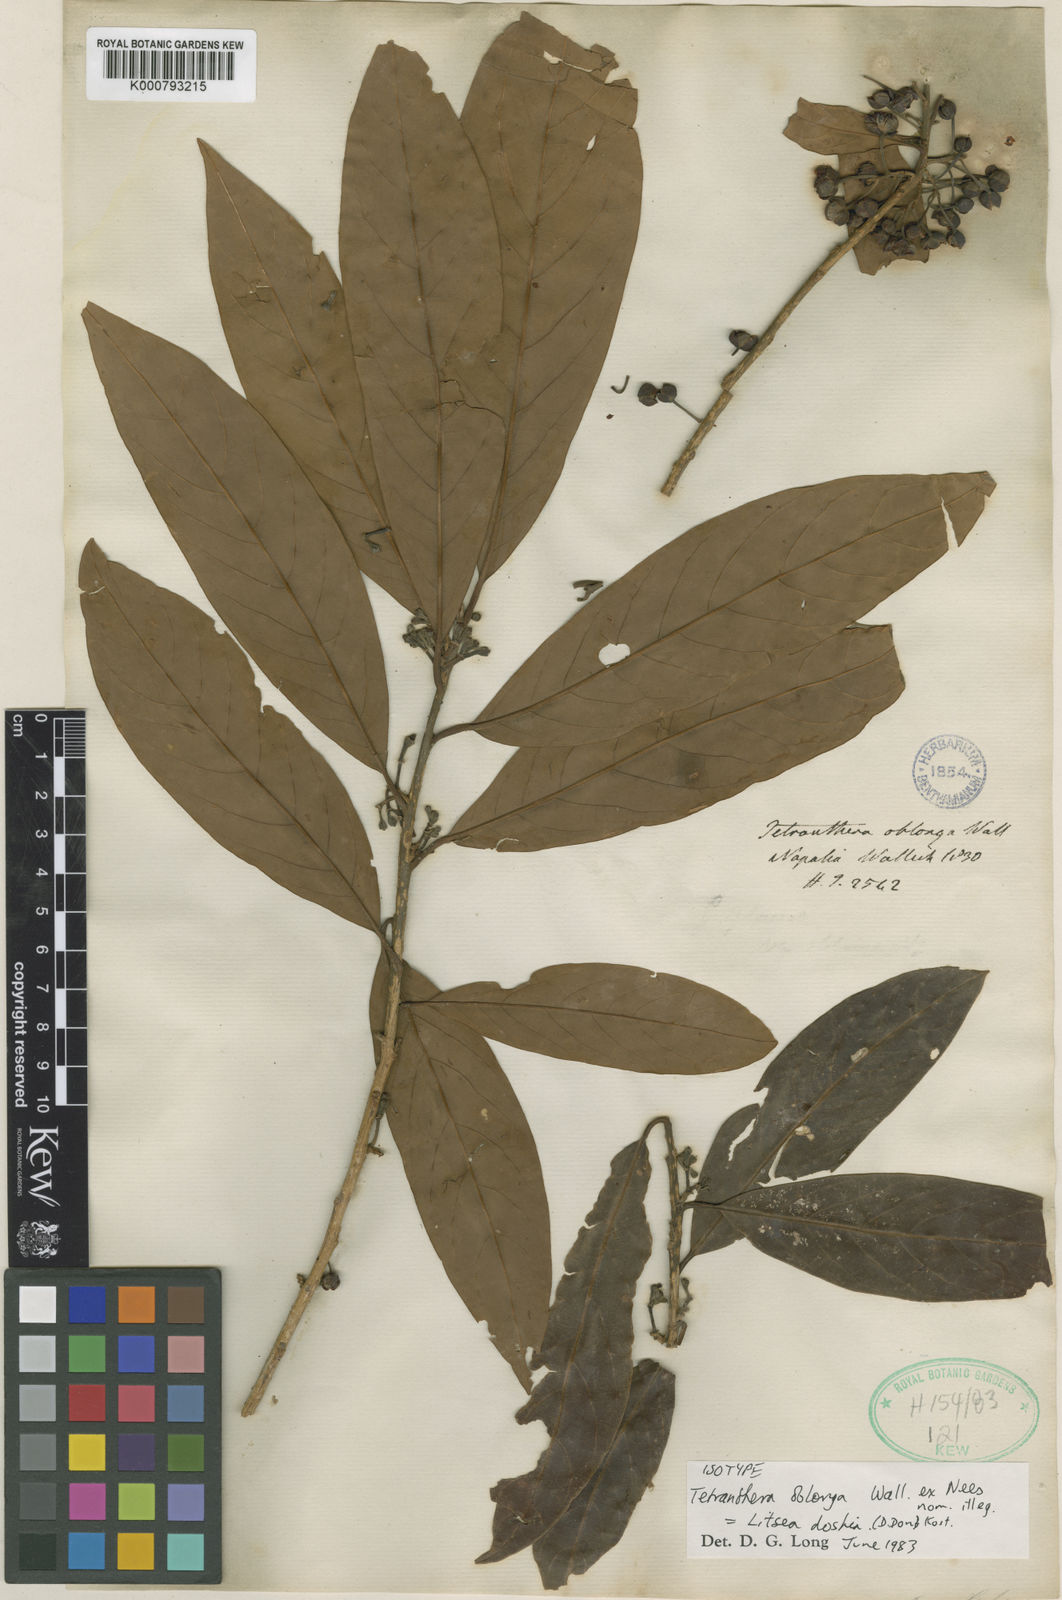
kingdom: Plantae
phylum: Tracheophyta
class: Magnoliopsida
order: Laurales
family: Lauraceae
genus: Litsea
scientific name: Litsea albescens
